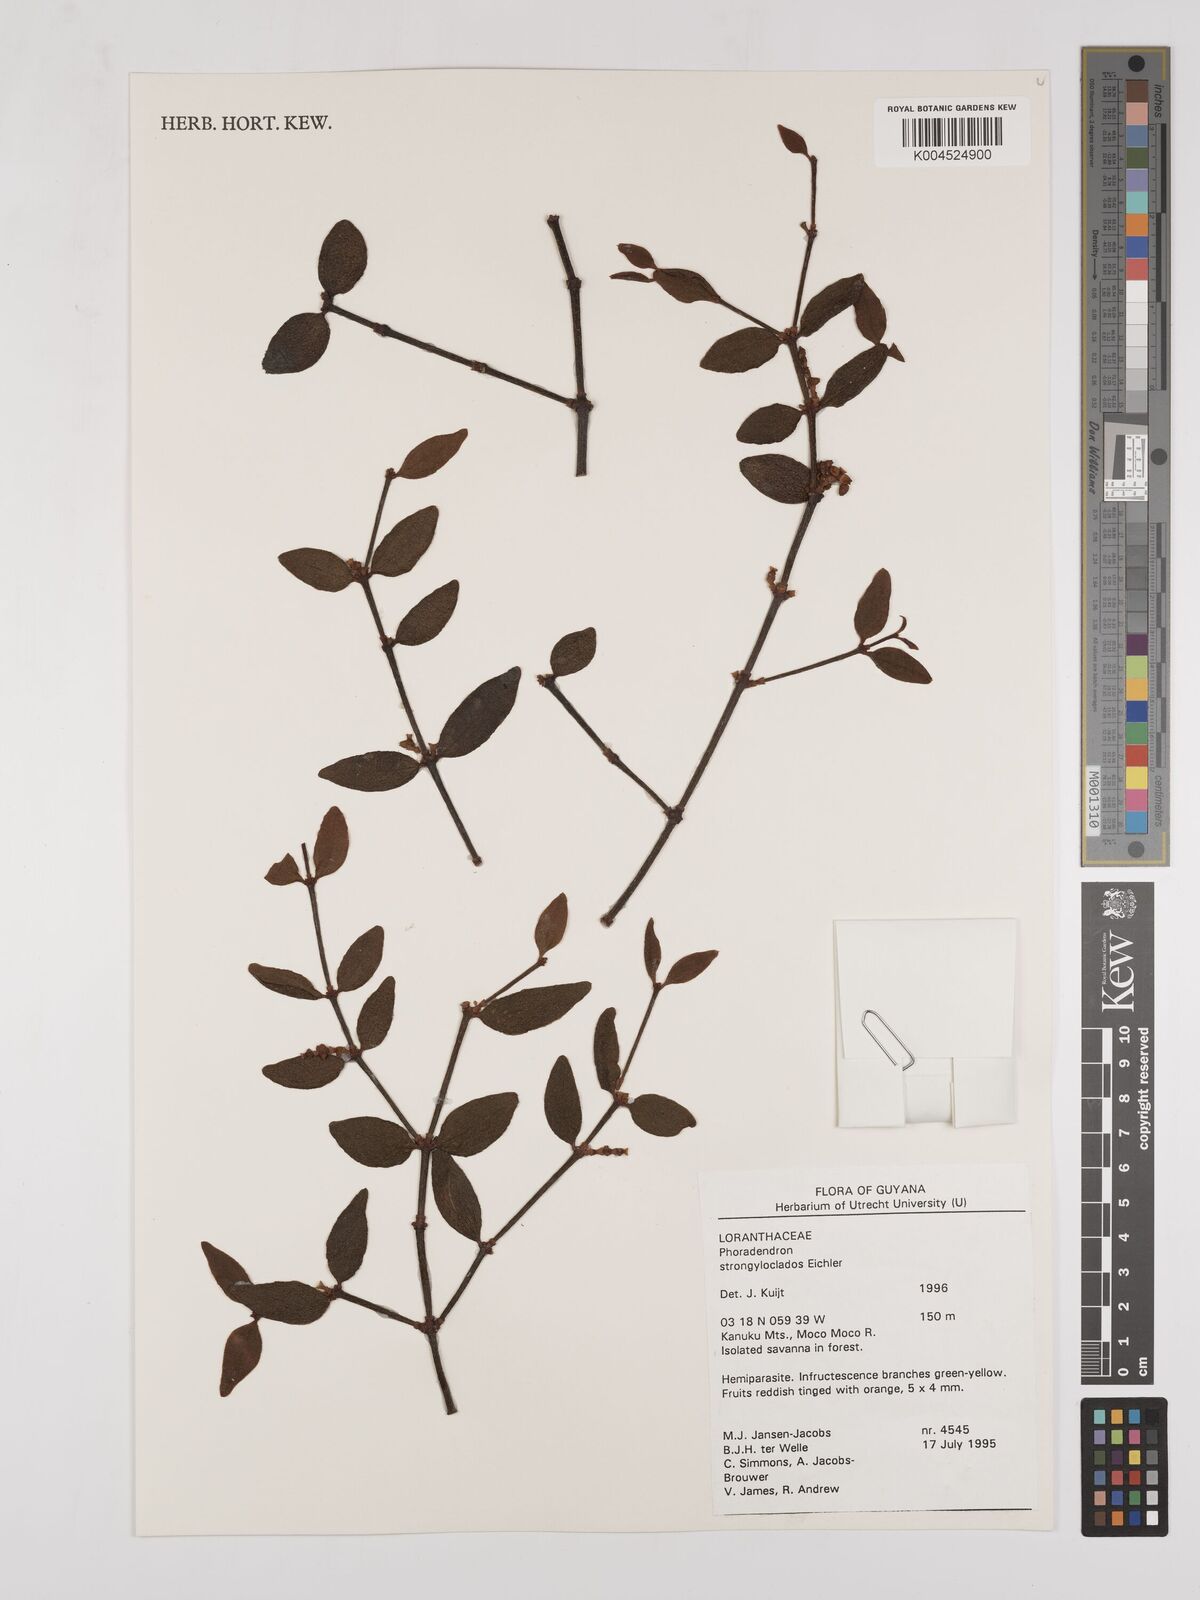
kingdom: Plantae
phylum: Tracheophyta
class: Magnoliopsida
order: Santalales
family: Viscaceae
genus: Phoradendron
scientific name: Phoradendron strongyloclados
